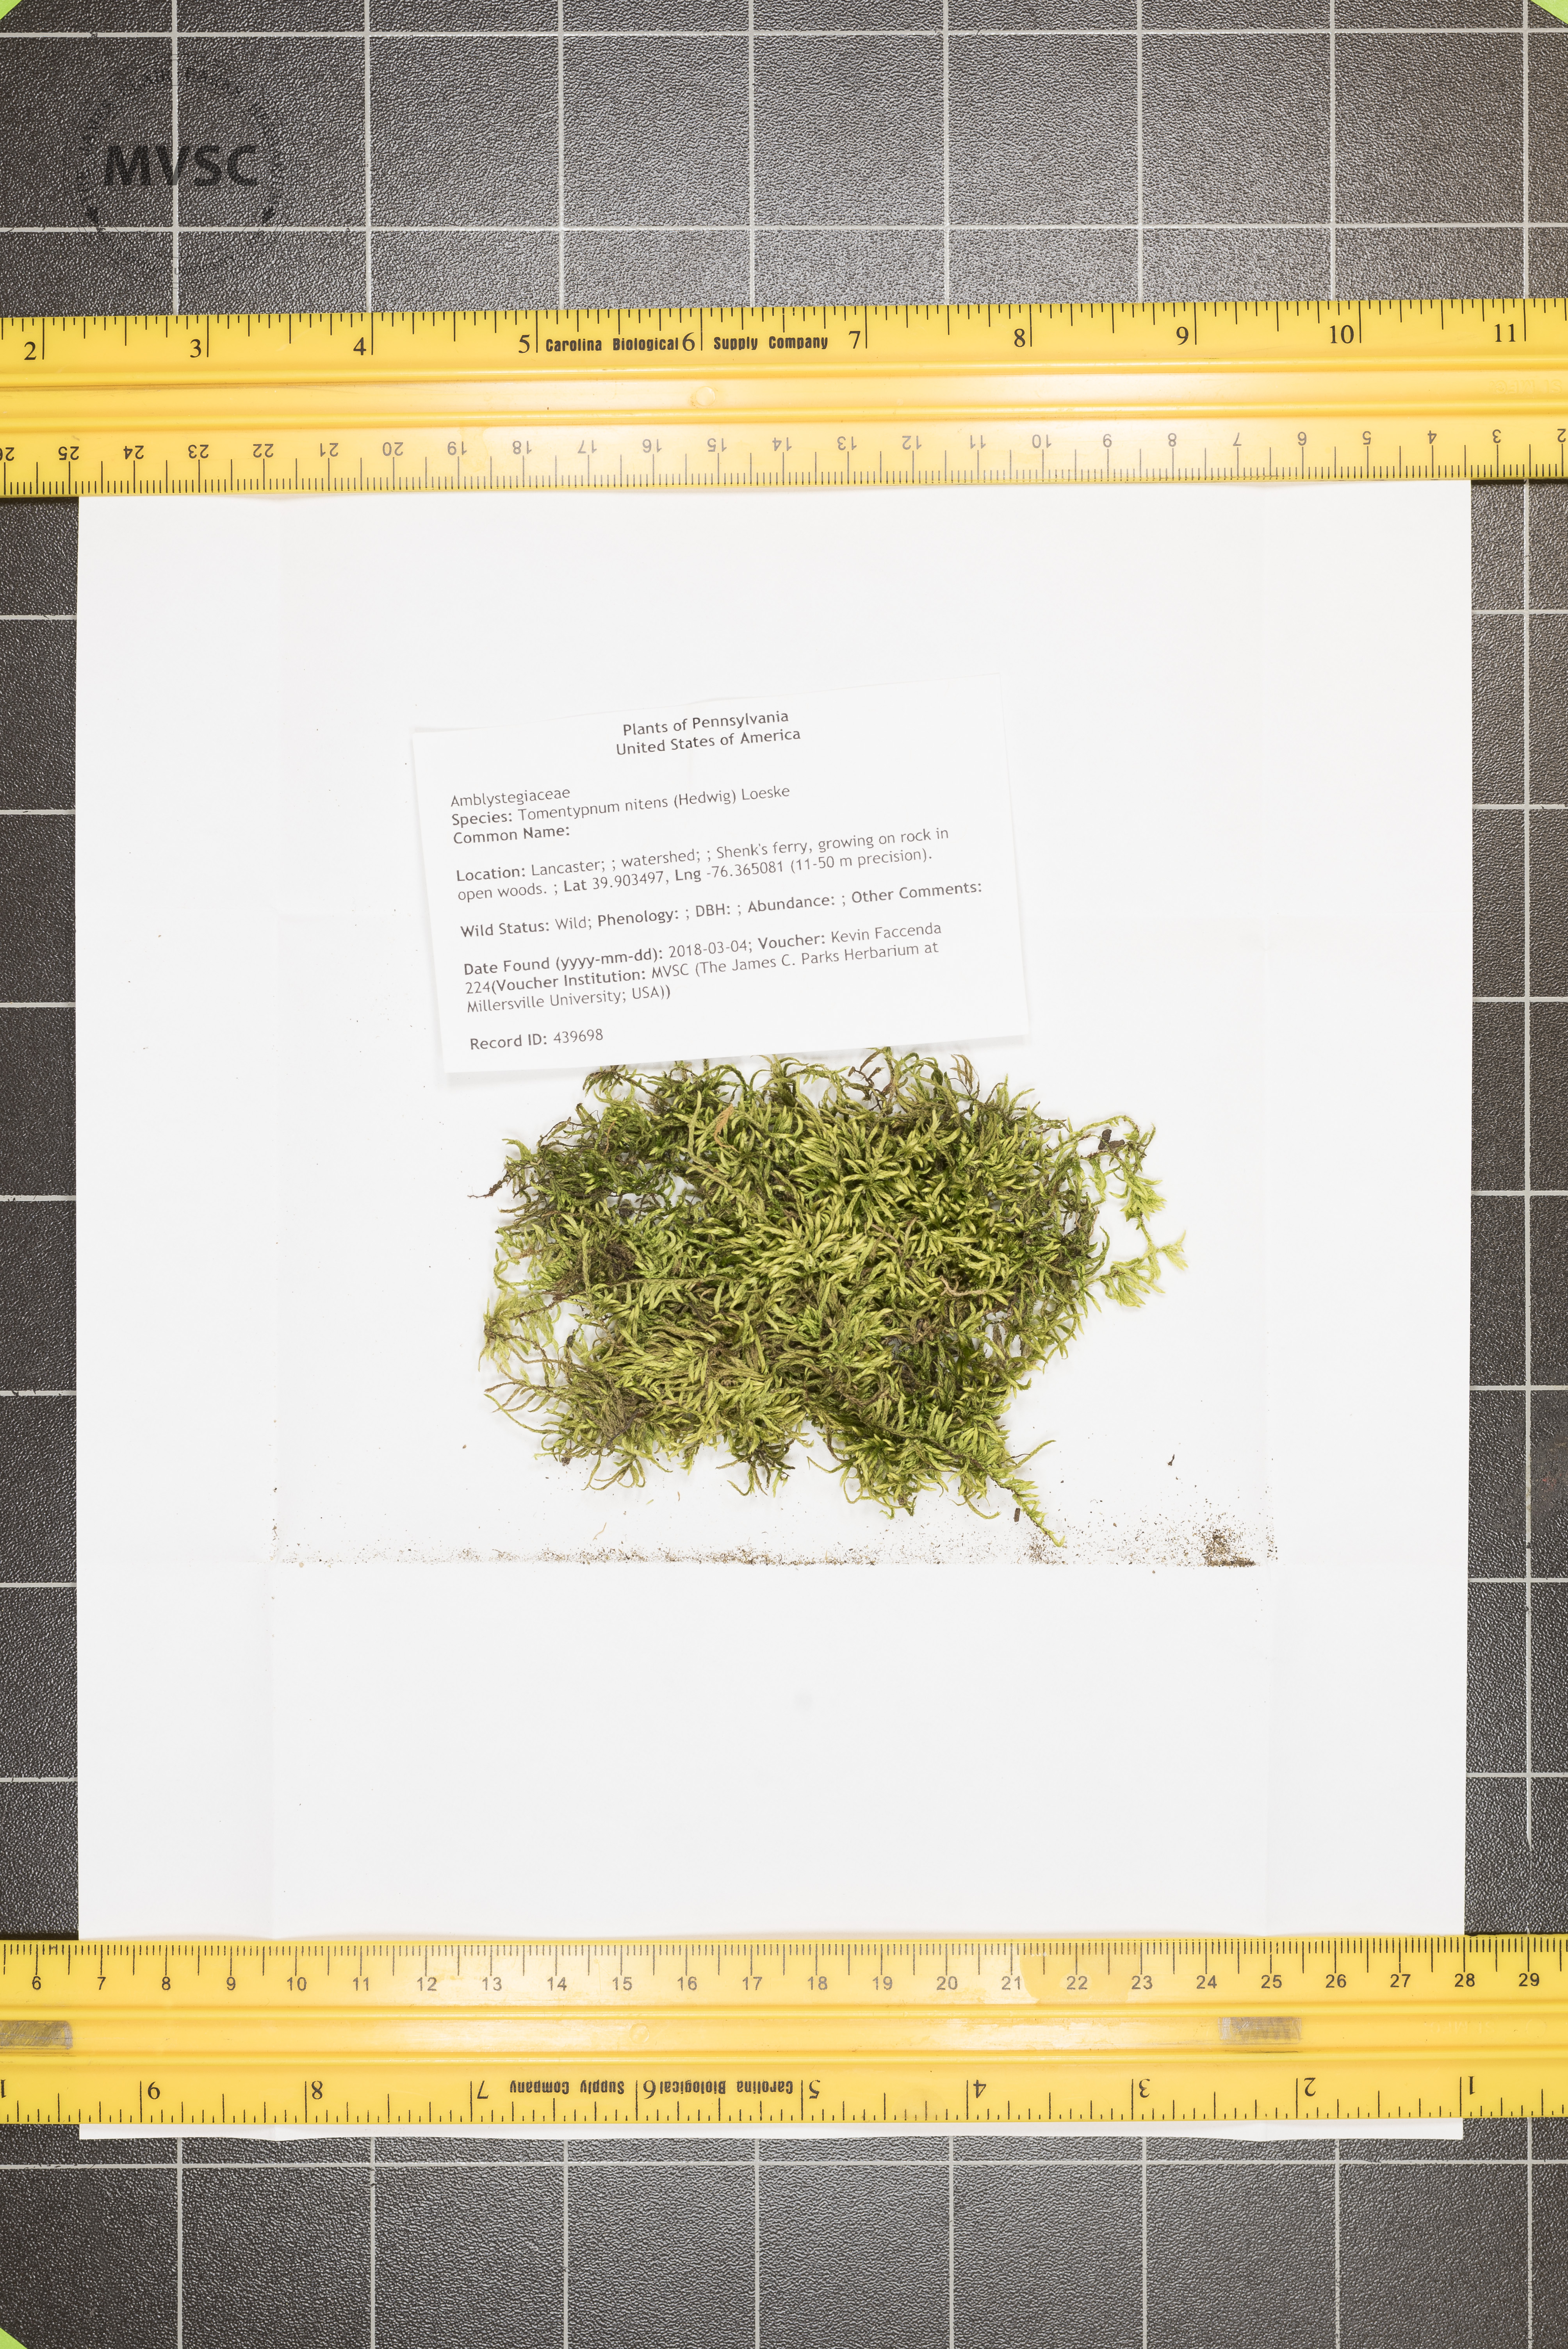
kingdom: Plantae
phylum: Bryophyta
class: Bryopsida
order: Hypnales
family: Amblystegiaceae
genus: Tomentypnum
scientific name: Tomentypnum nitens
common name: Golden fuzzy fen moss
